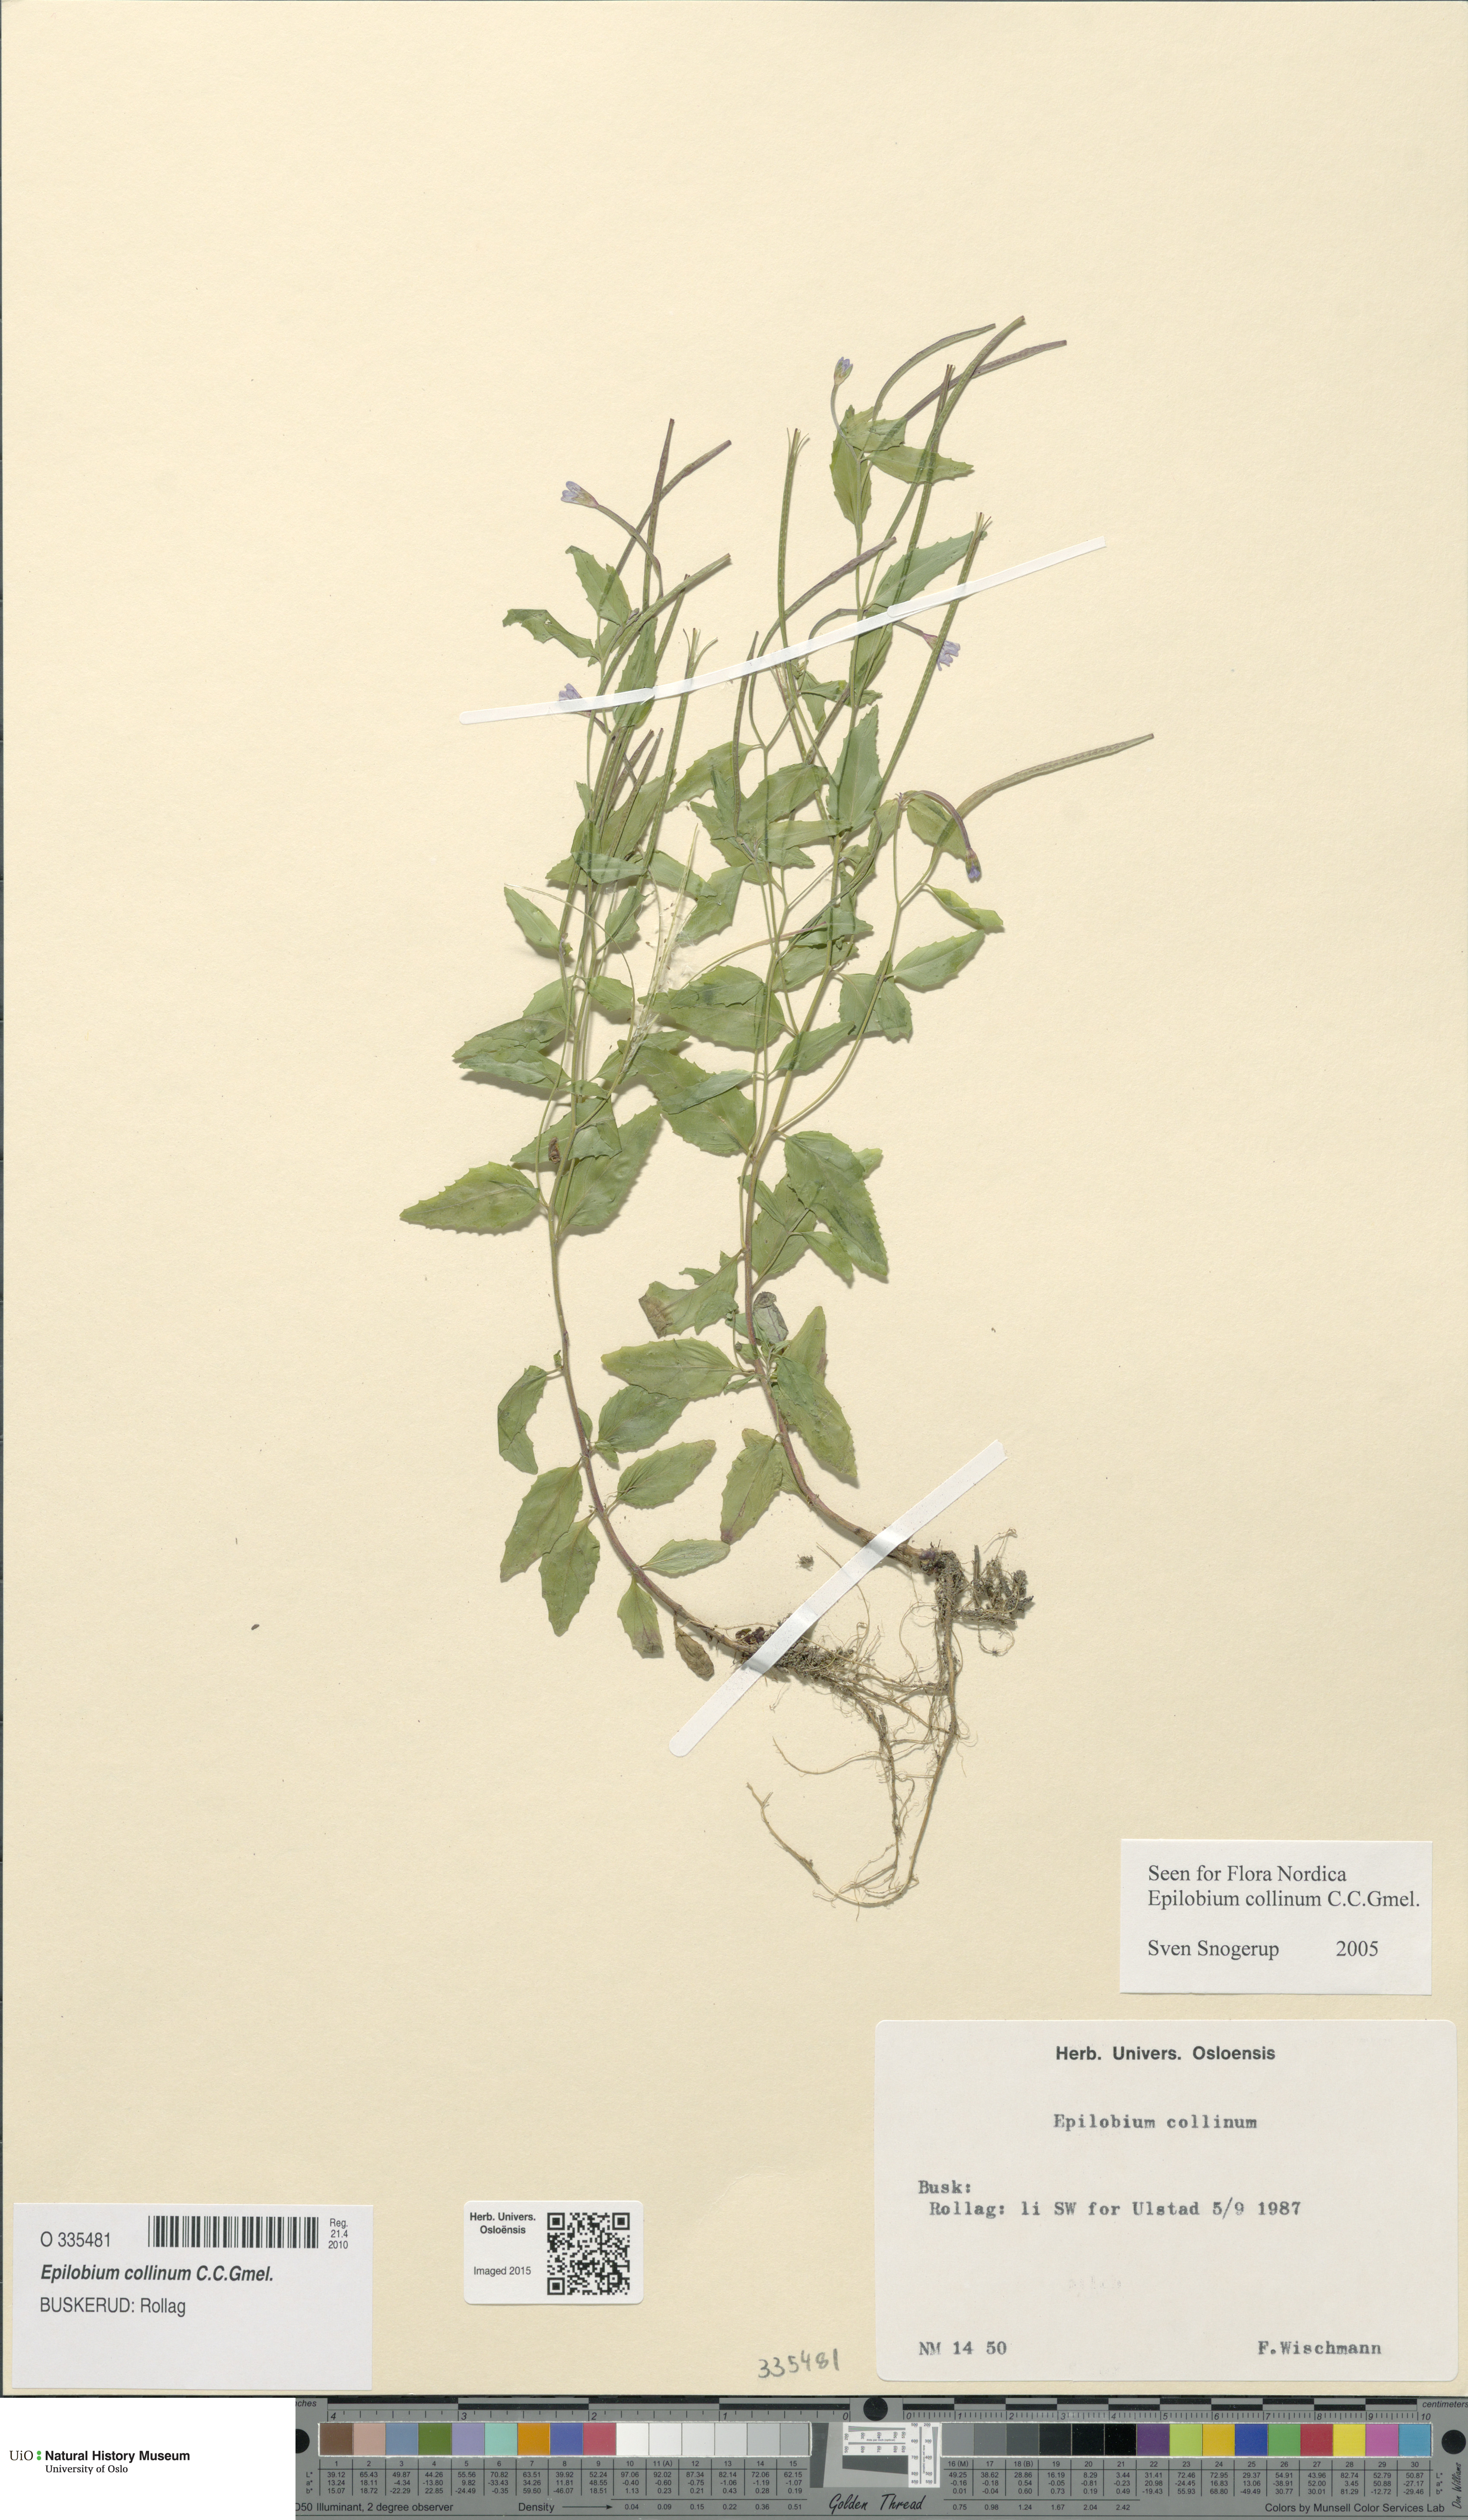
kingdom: Plantae
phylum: Tracheophyta
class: Magnoliopsida
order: Myrtales
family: Onagraceae
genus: Epilobium
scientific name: Epilobium collinum
